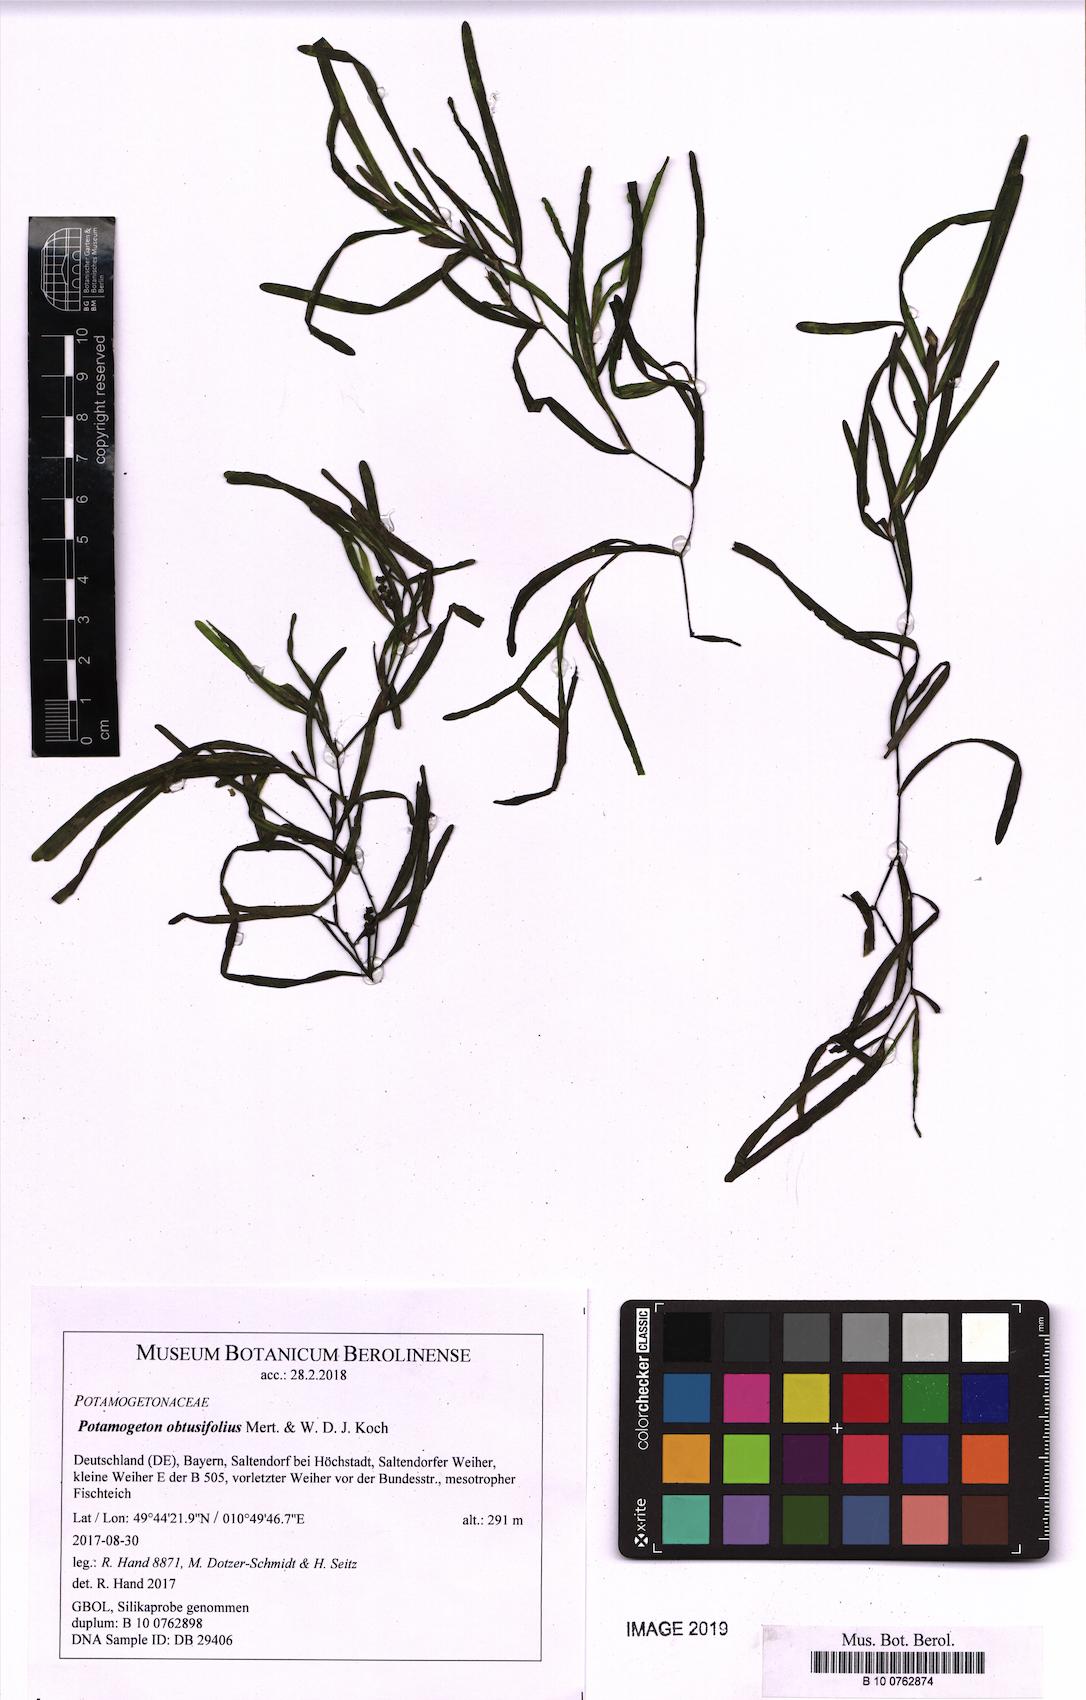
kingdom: Plantae
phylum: Tracheophyta
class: Liliopsida
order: Alismatales
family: Potamogetonaceae
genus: Potamogeton
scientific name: Potamogeton obtusifolius
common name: Blunt-leaved pondweed
